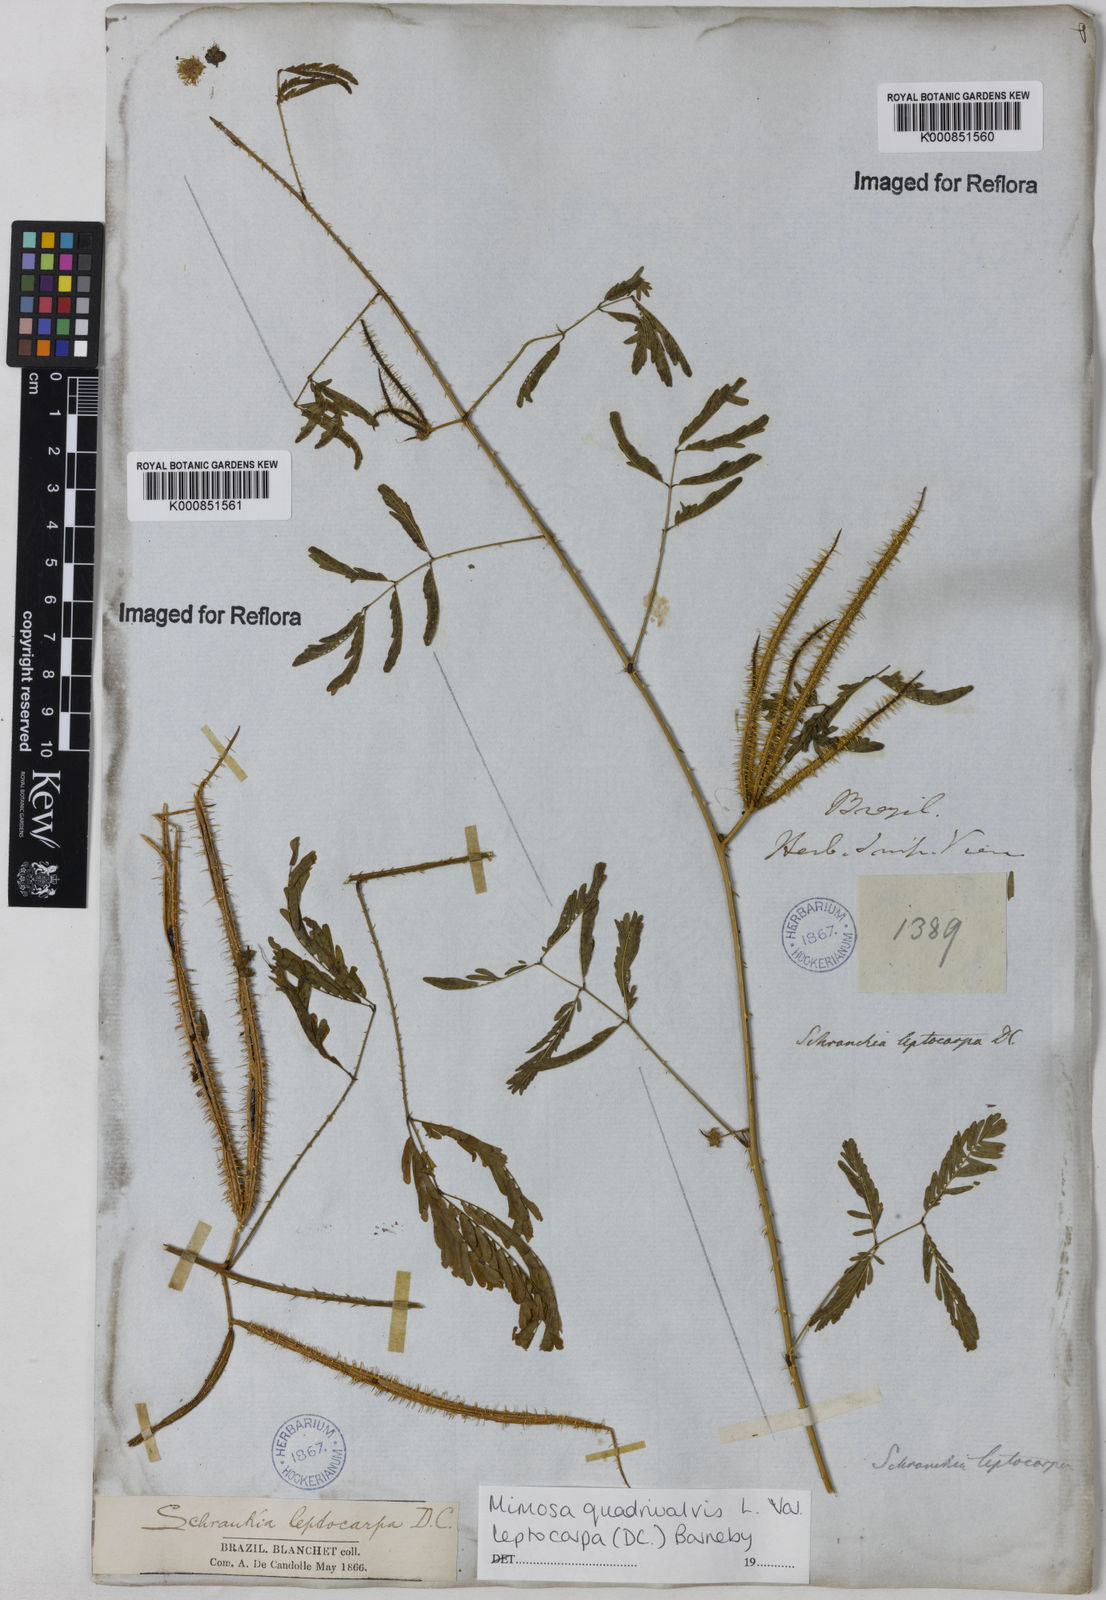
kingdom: Plantae
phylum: Tracheophyta
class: Magnoliopsida
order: Fabales
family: Fabaceae
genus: Mimosa
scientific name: Mimosa candollei
